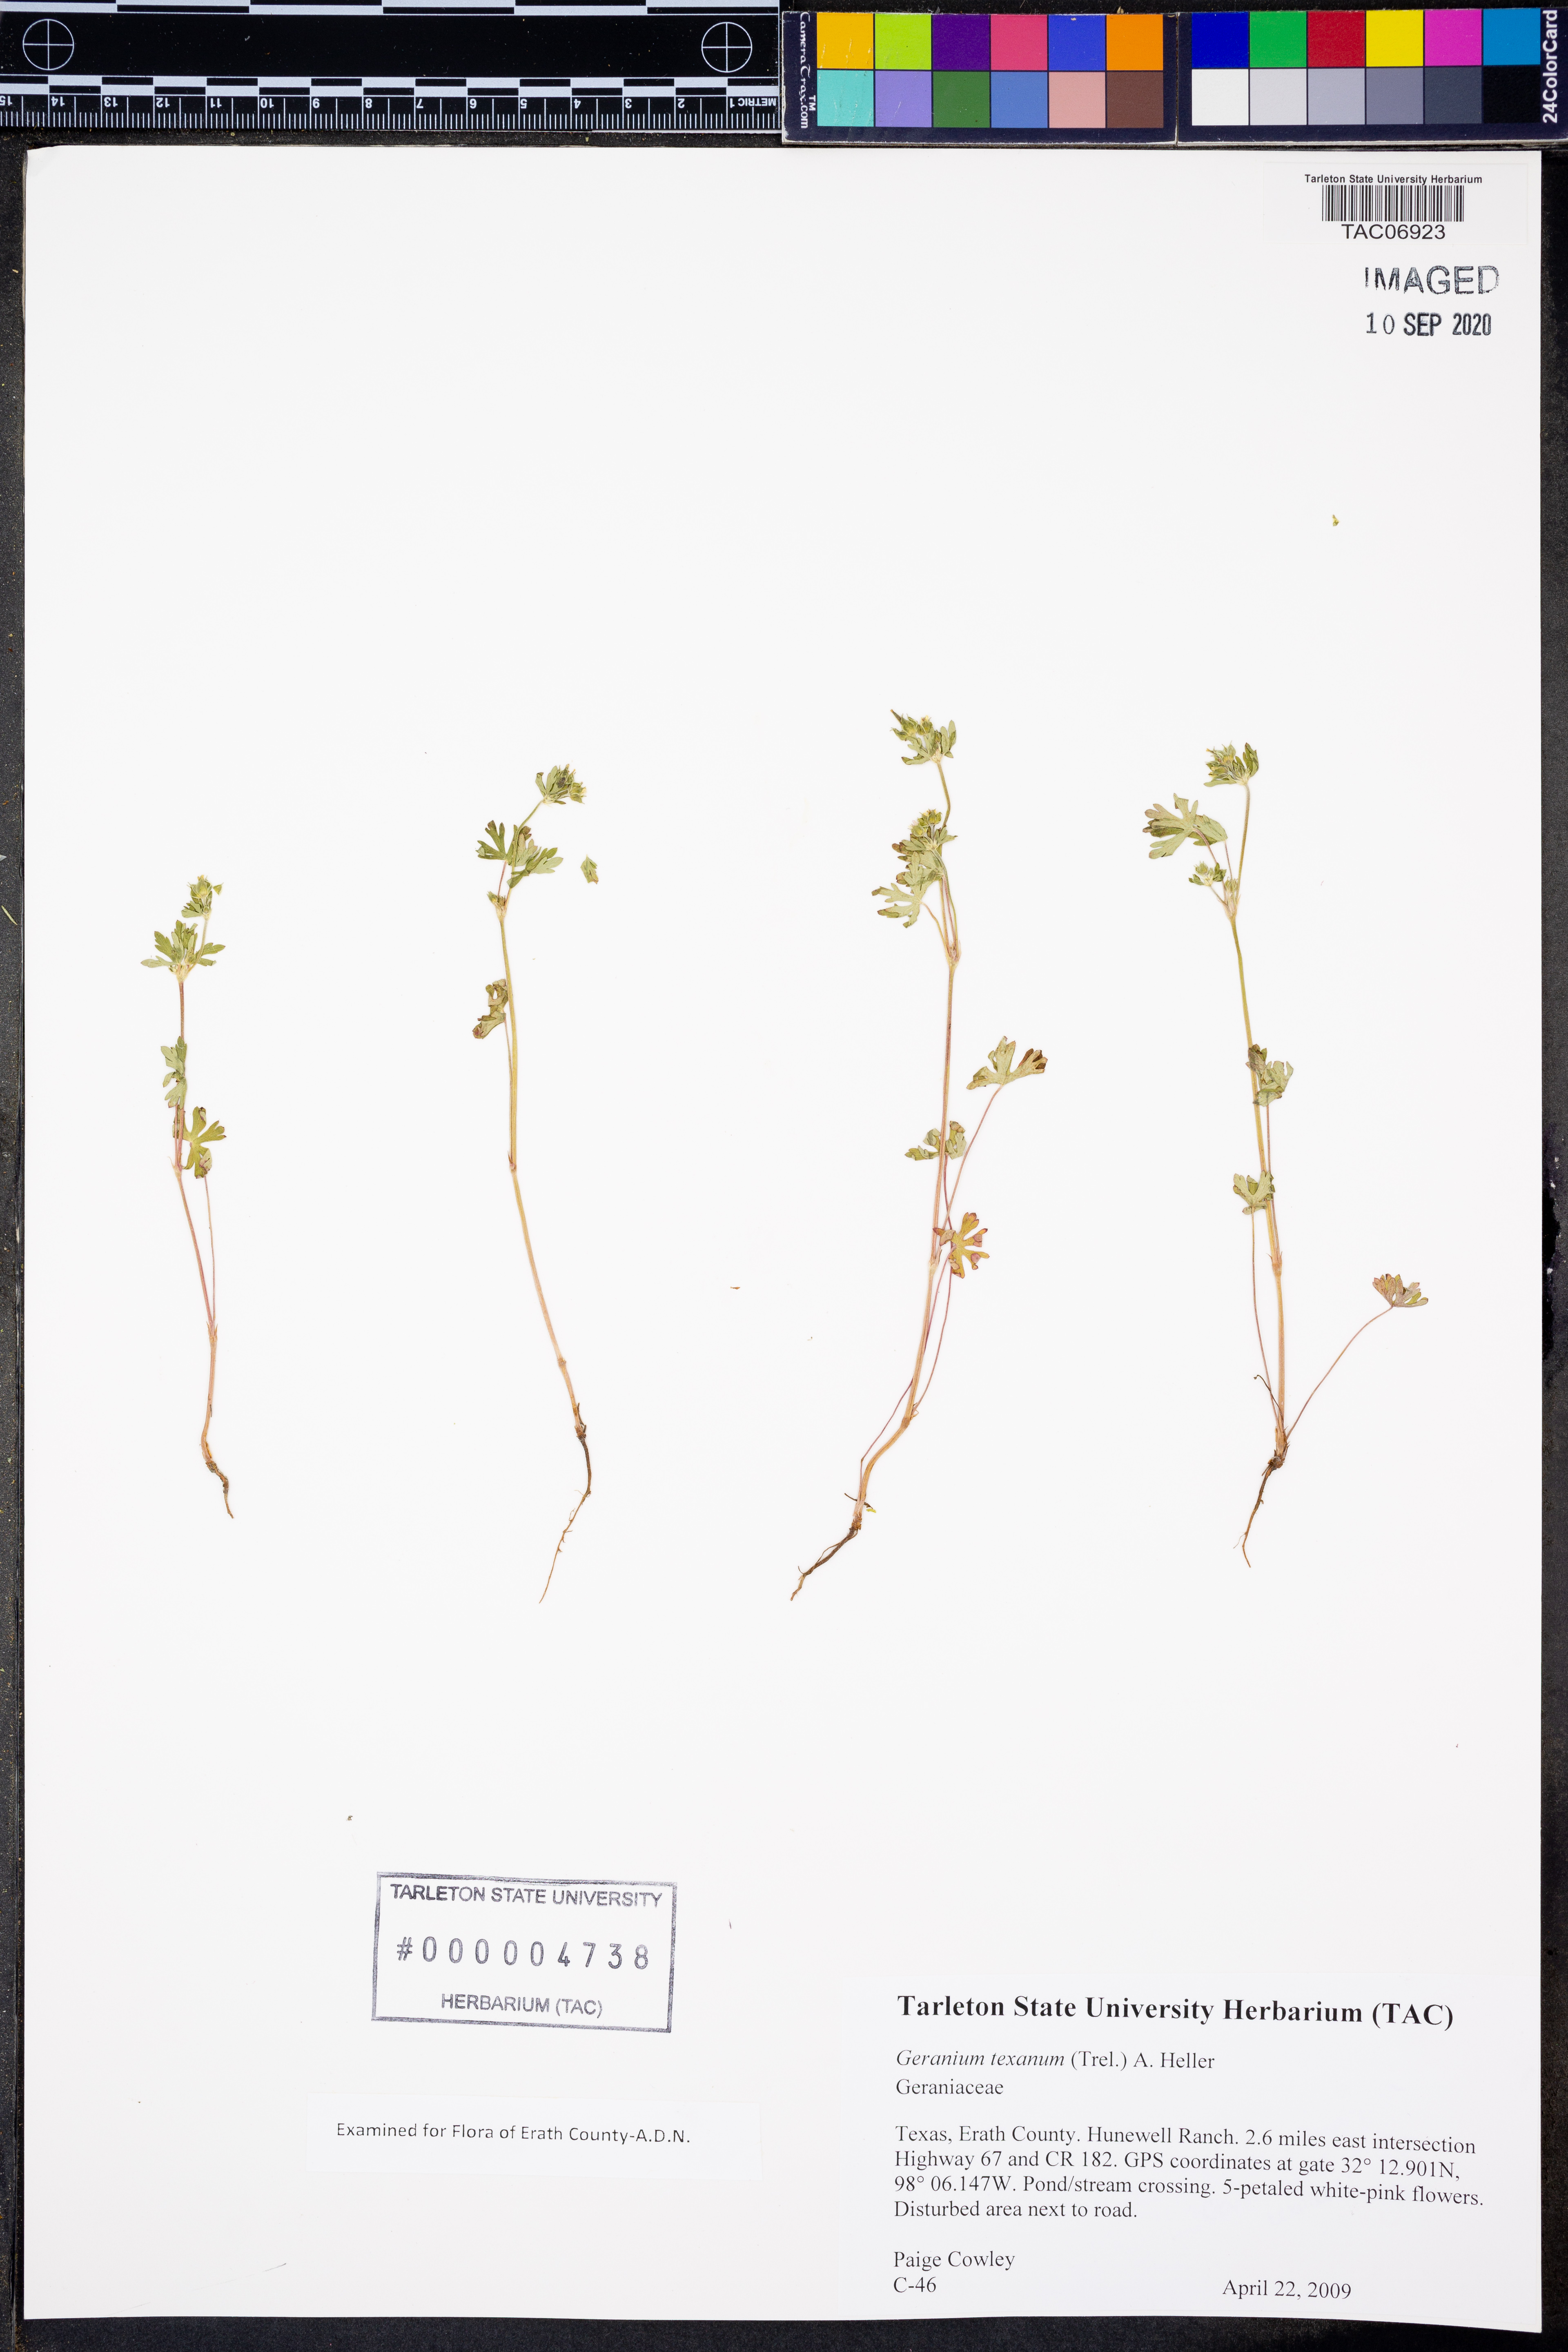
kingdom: Plantae
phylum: Tracheophyta
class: Magnoliopsida
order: Geraniales
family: Geraniaceae
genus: Geranium
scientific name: Geranium texanum
